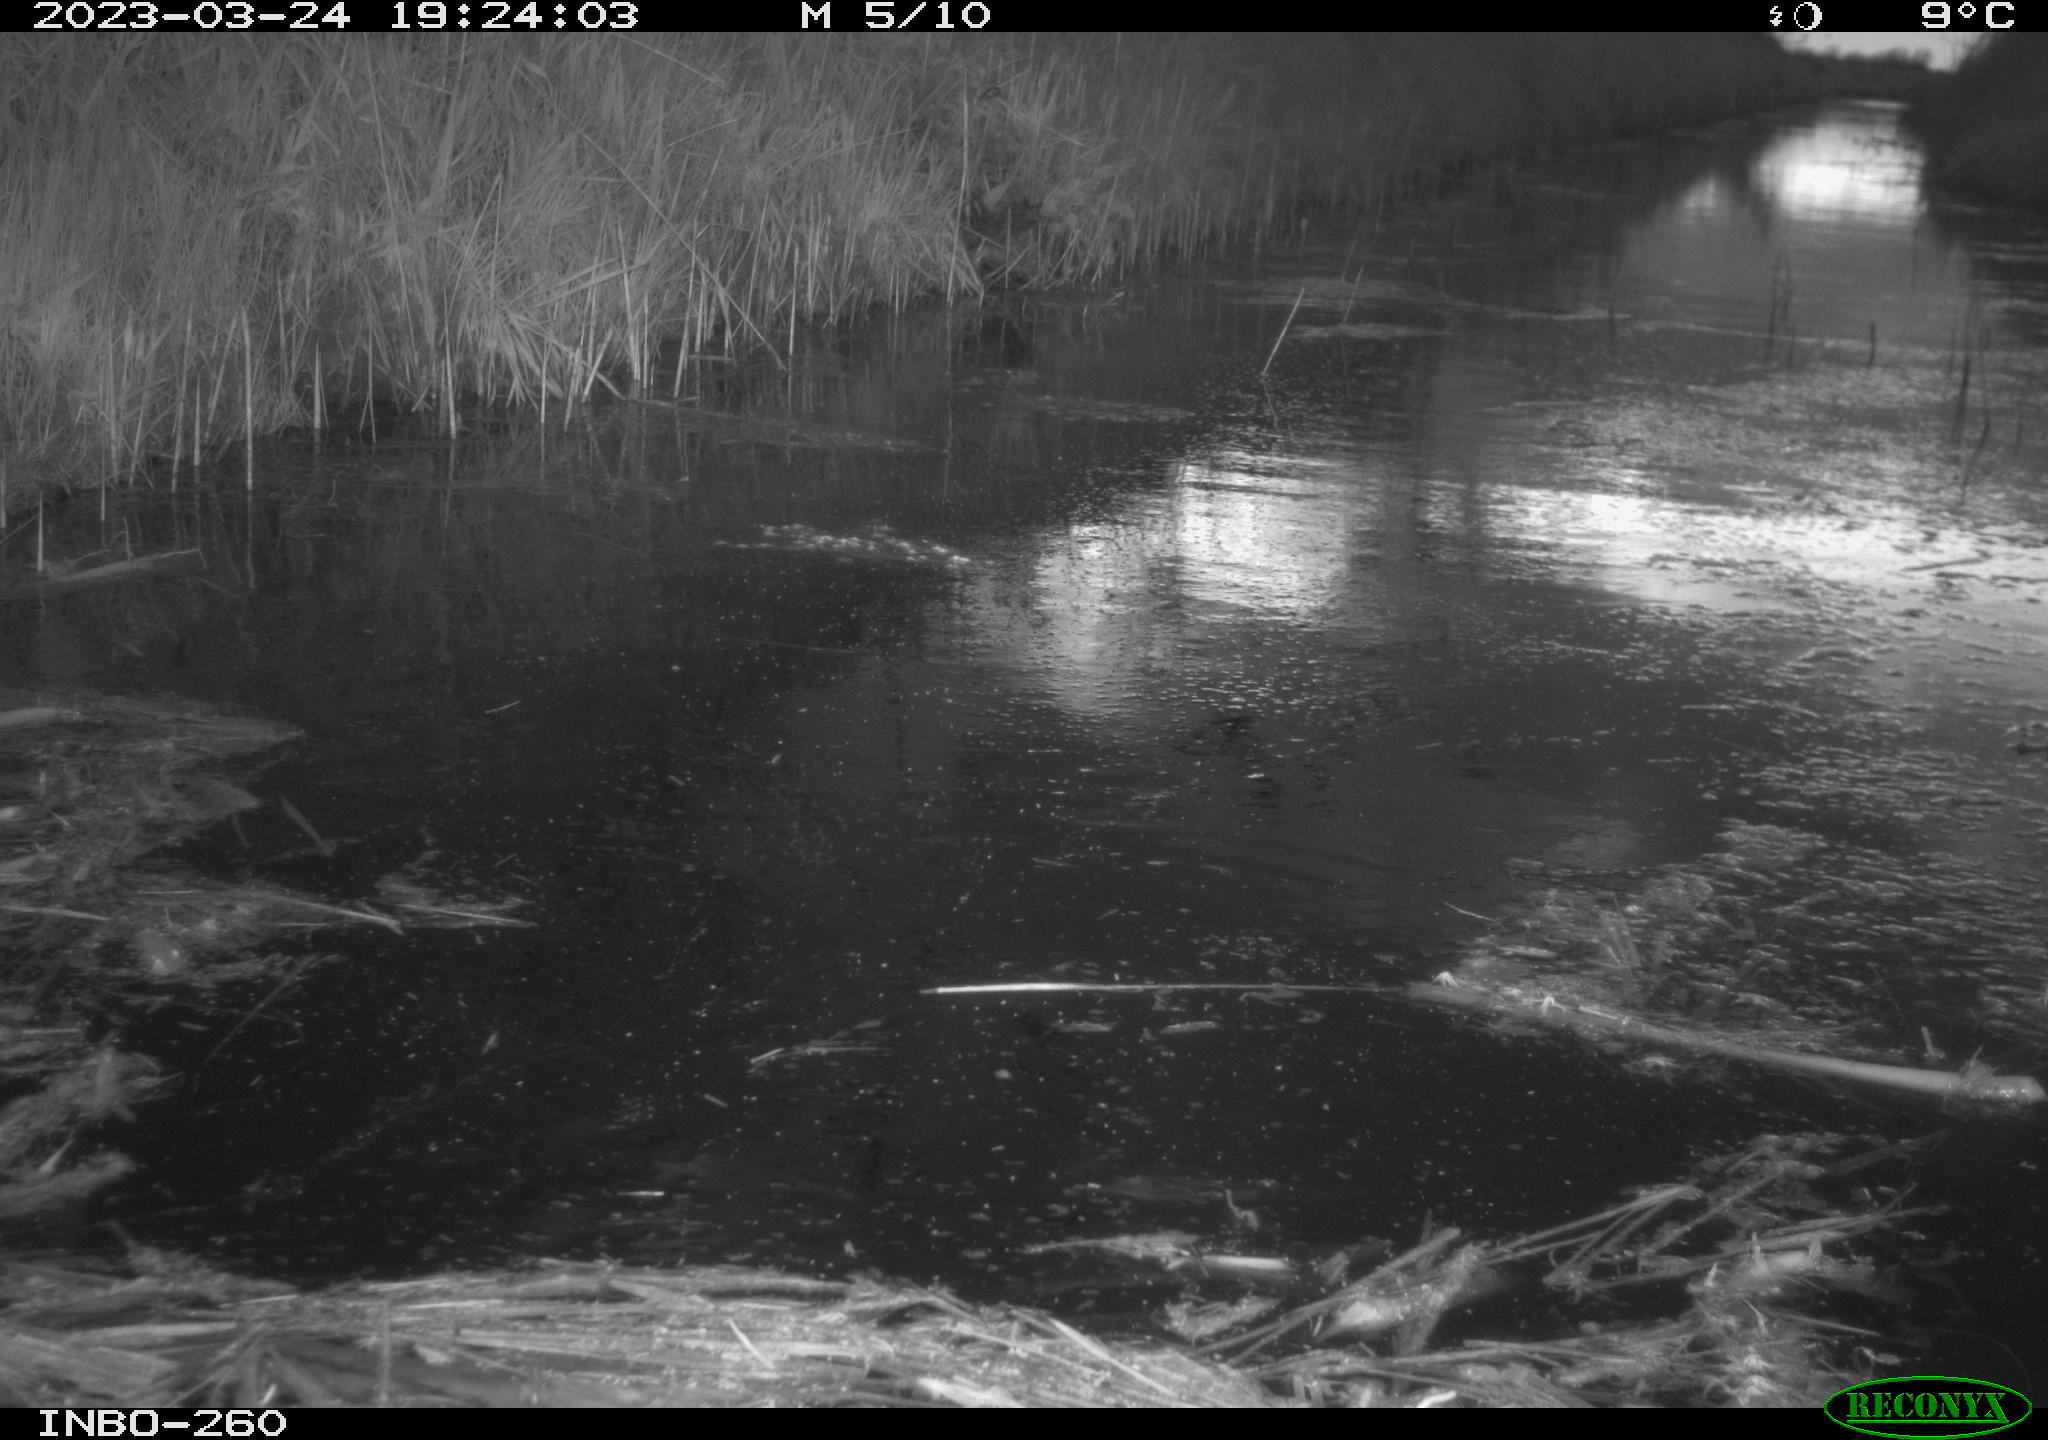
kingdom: Animalia
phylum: Chordata
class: Aves
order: Gruiformes
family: Rallidae
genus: Gallinula
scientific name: Gallinula chloropus
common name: Common moorhen
